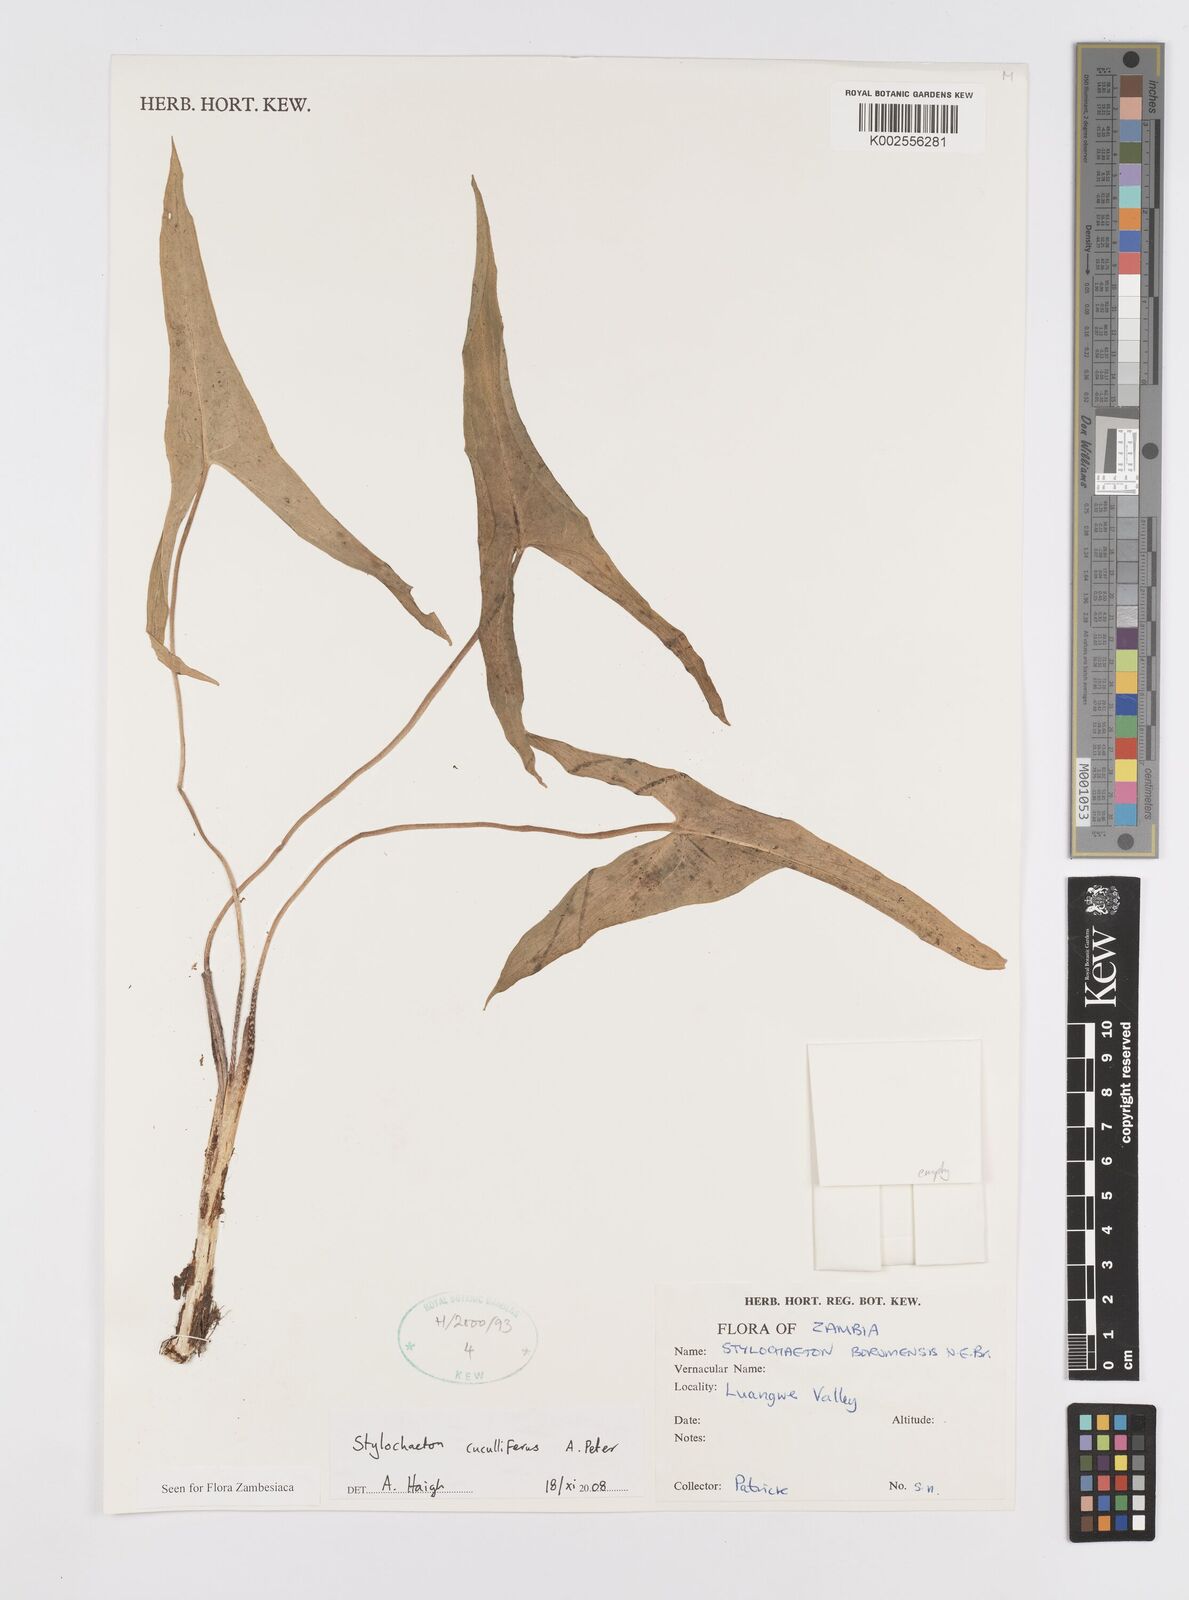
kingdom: Plantae
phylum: Tracheophyta
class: Liliopsida
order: Alismatales
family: Araceae
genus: Stylochaeton
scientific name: Stylochaeton cuculliferum
